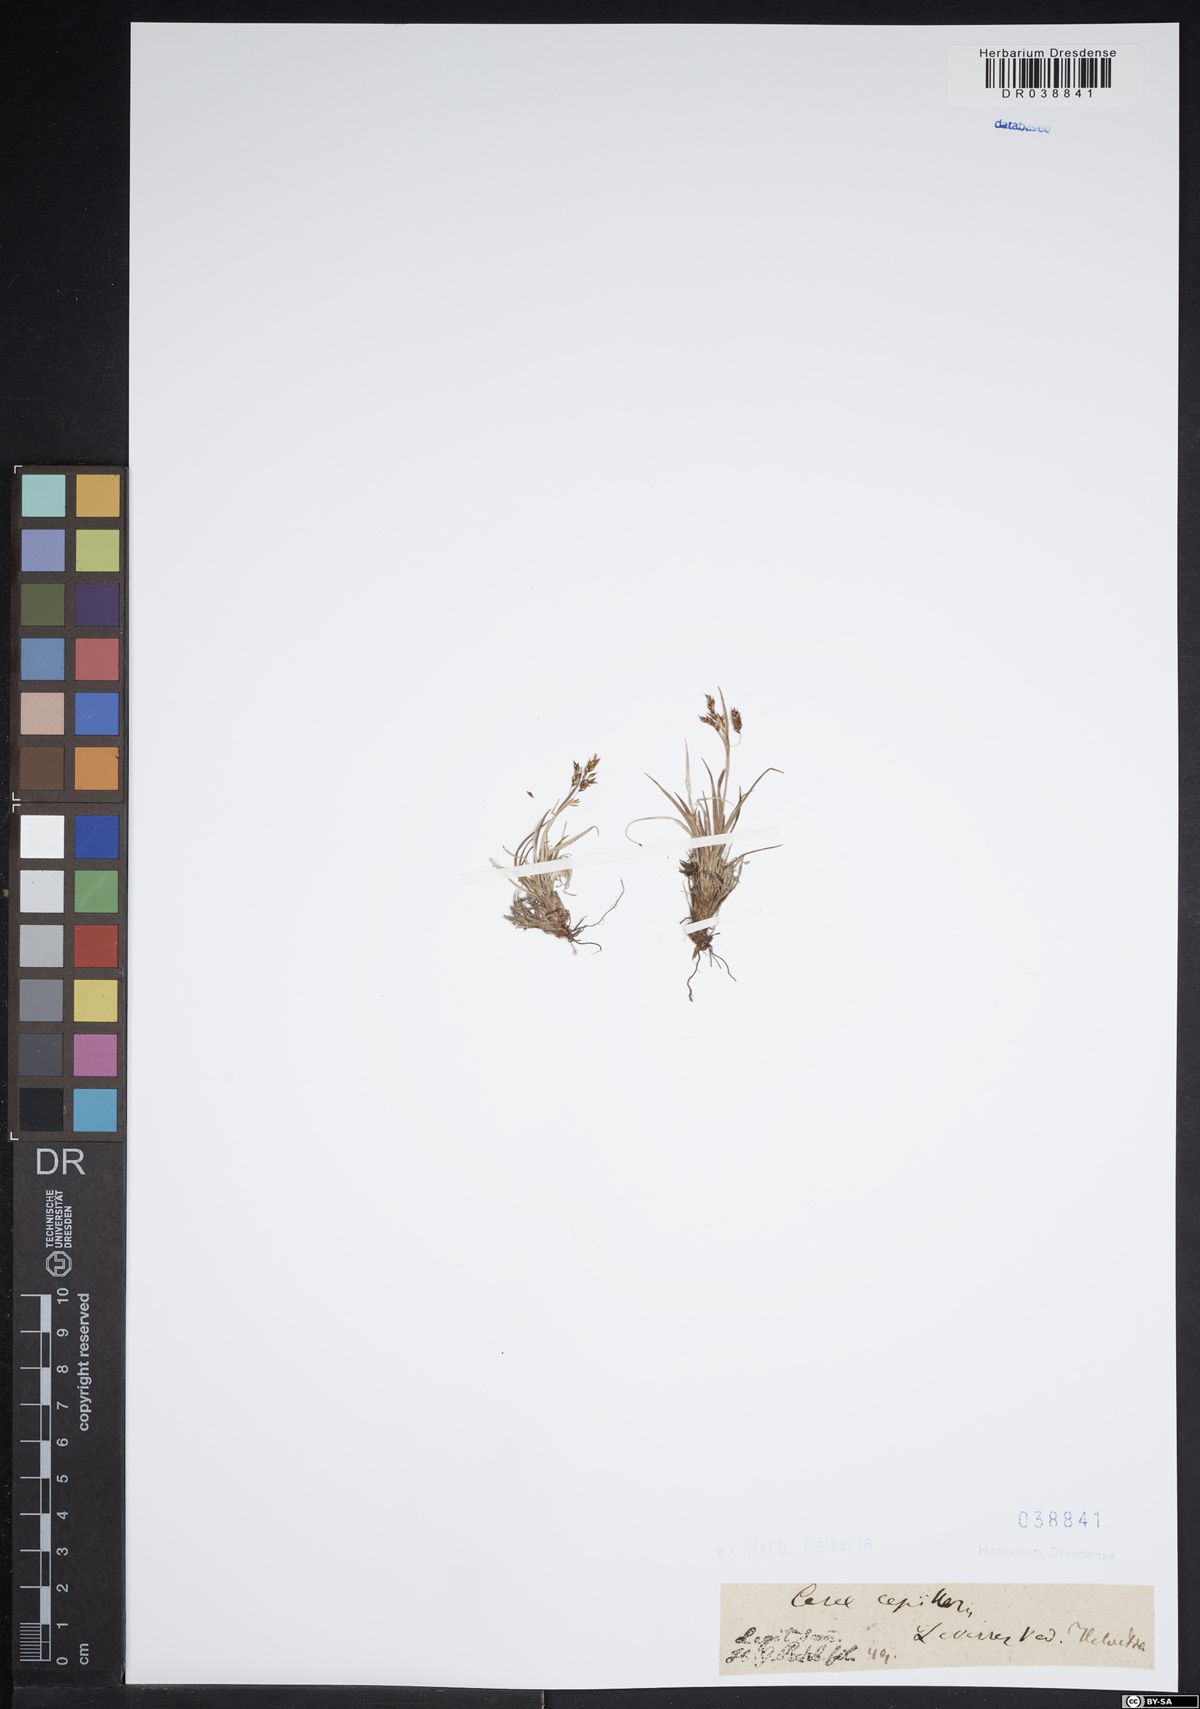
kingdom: Plantae
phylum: Tracheophyta
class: Liliopsida
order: Poales
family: Cyperaceae
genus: Carex
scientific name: Carex capillaris
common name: Hair sedge
